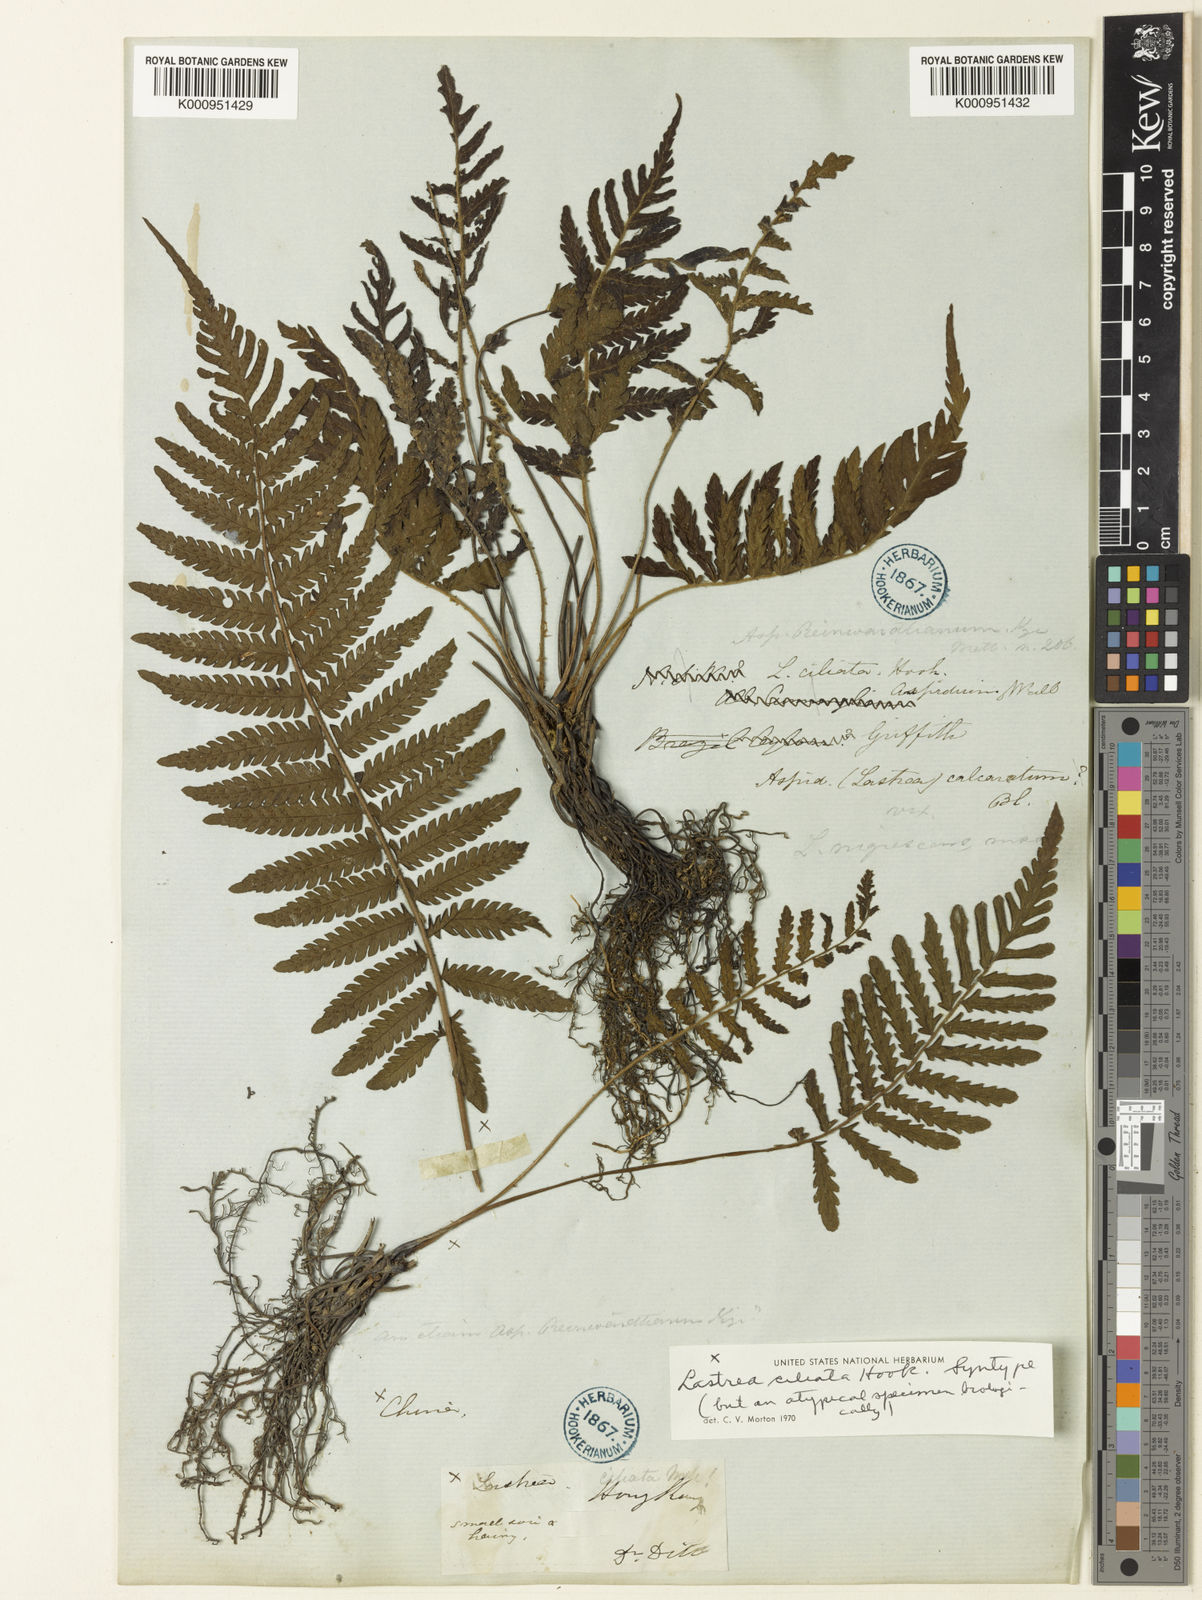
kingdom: Plantae
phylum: Tracheophyta
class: Polypodiopsida
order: Polypodiales
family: Thelypteridaceae
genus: Trigonospora
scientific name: Trigonospora tenera
